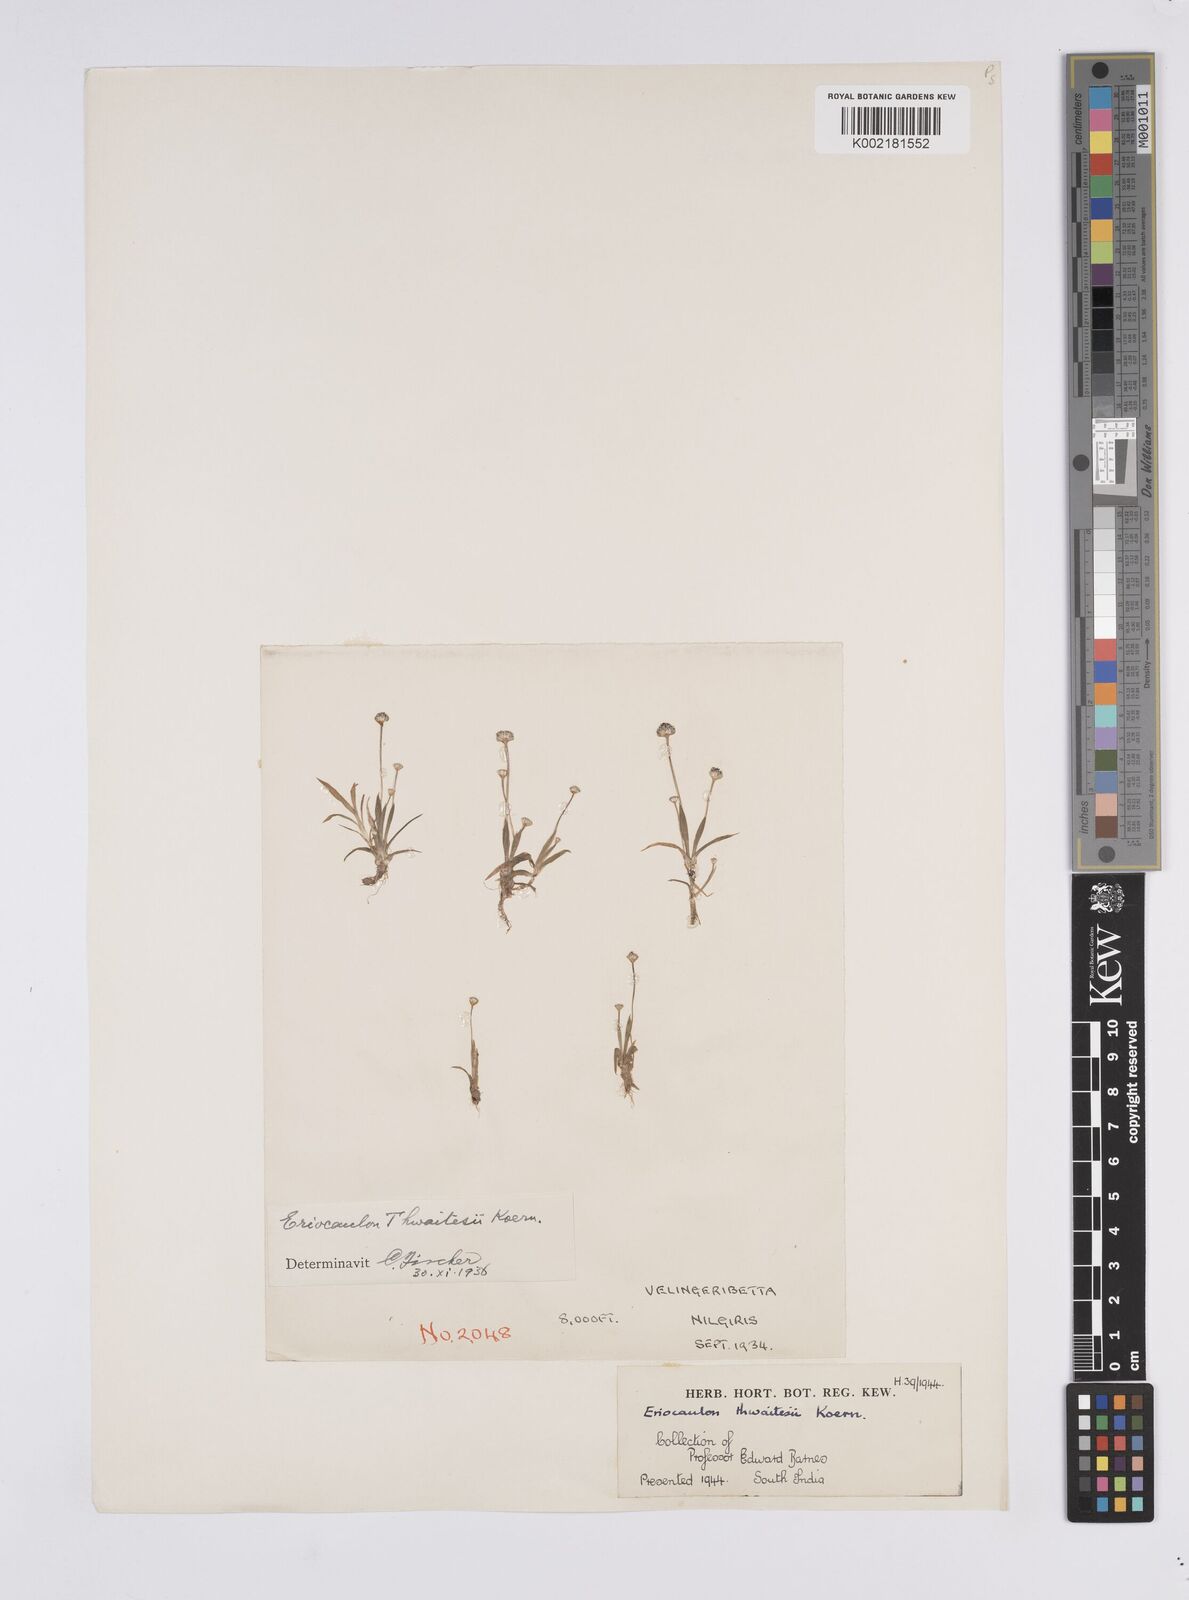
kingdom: Plantae
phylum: Tracheophyta
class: Liliopsida
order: Poales
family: Eriocaulaceae
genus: Eriocaulon
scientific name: Eriocaulon thwaitesii
